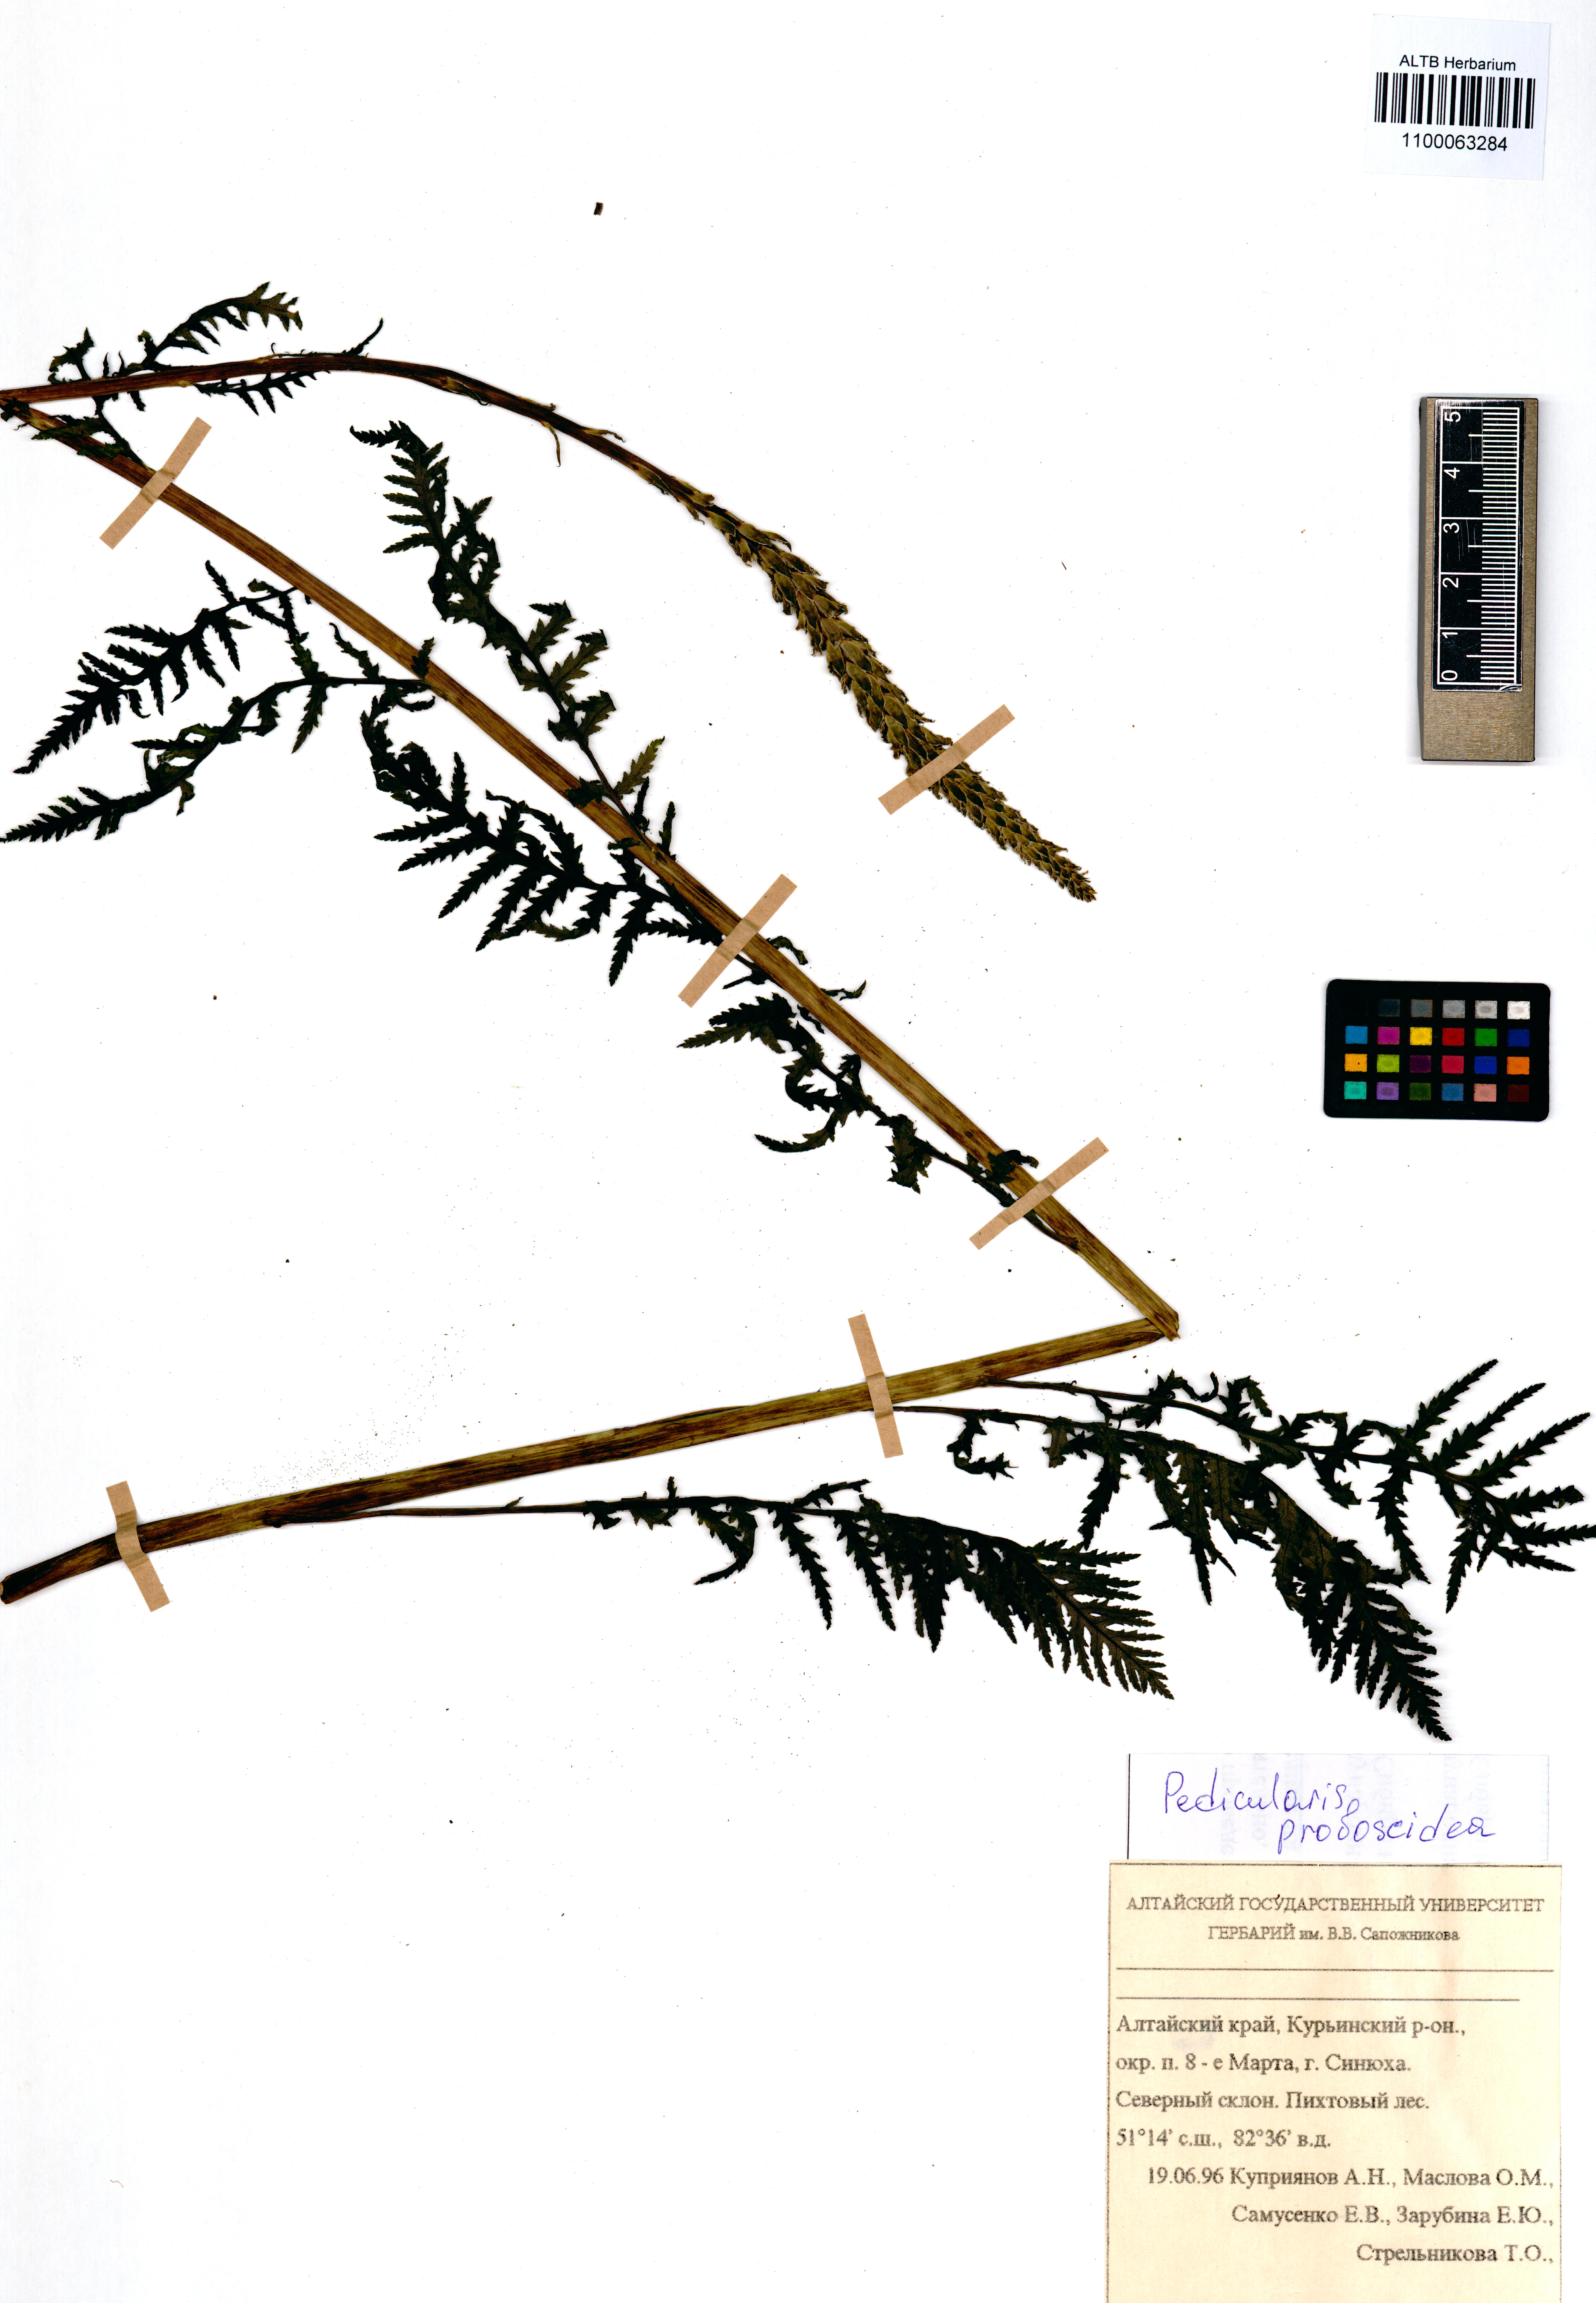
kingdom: Plantae
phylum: Tracheophyta
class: Magnoliopsida
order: Lamiales
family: Orobanchaceae
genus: Pedicularis
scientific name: Pedicularis cenisia
